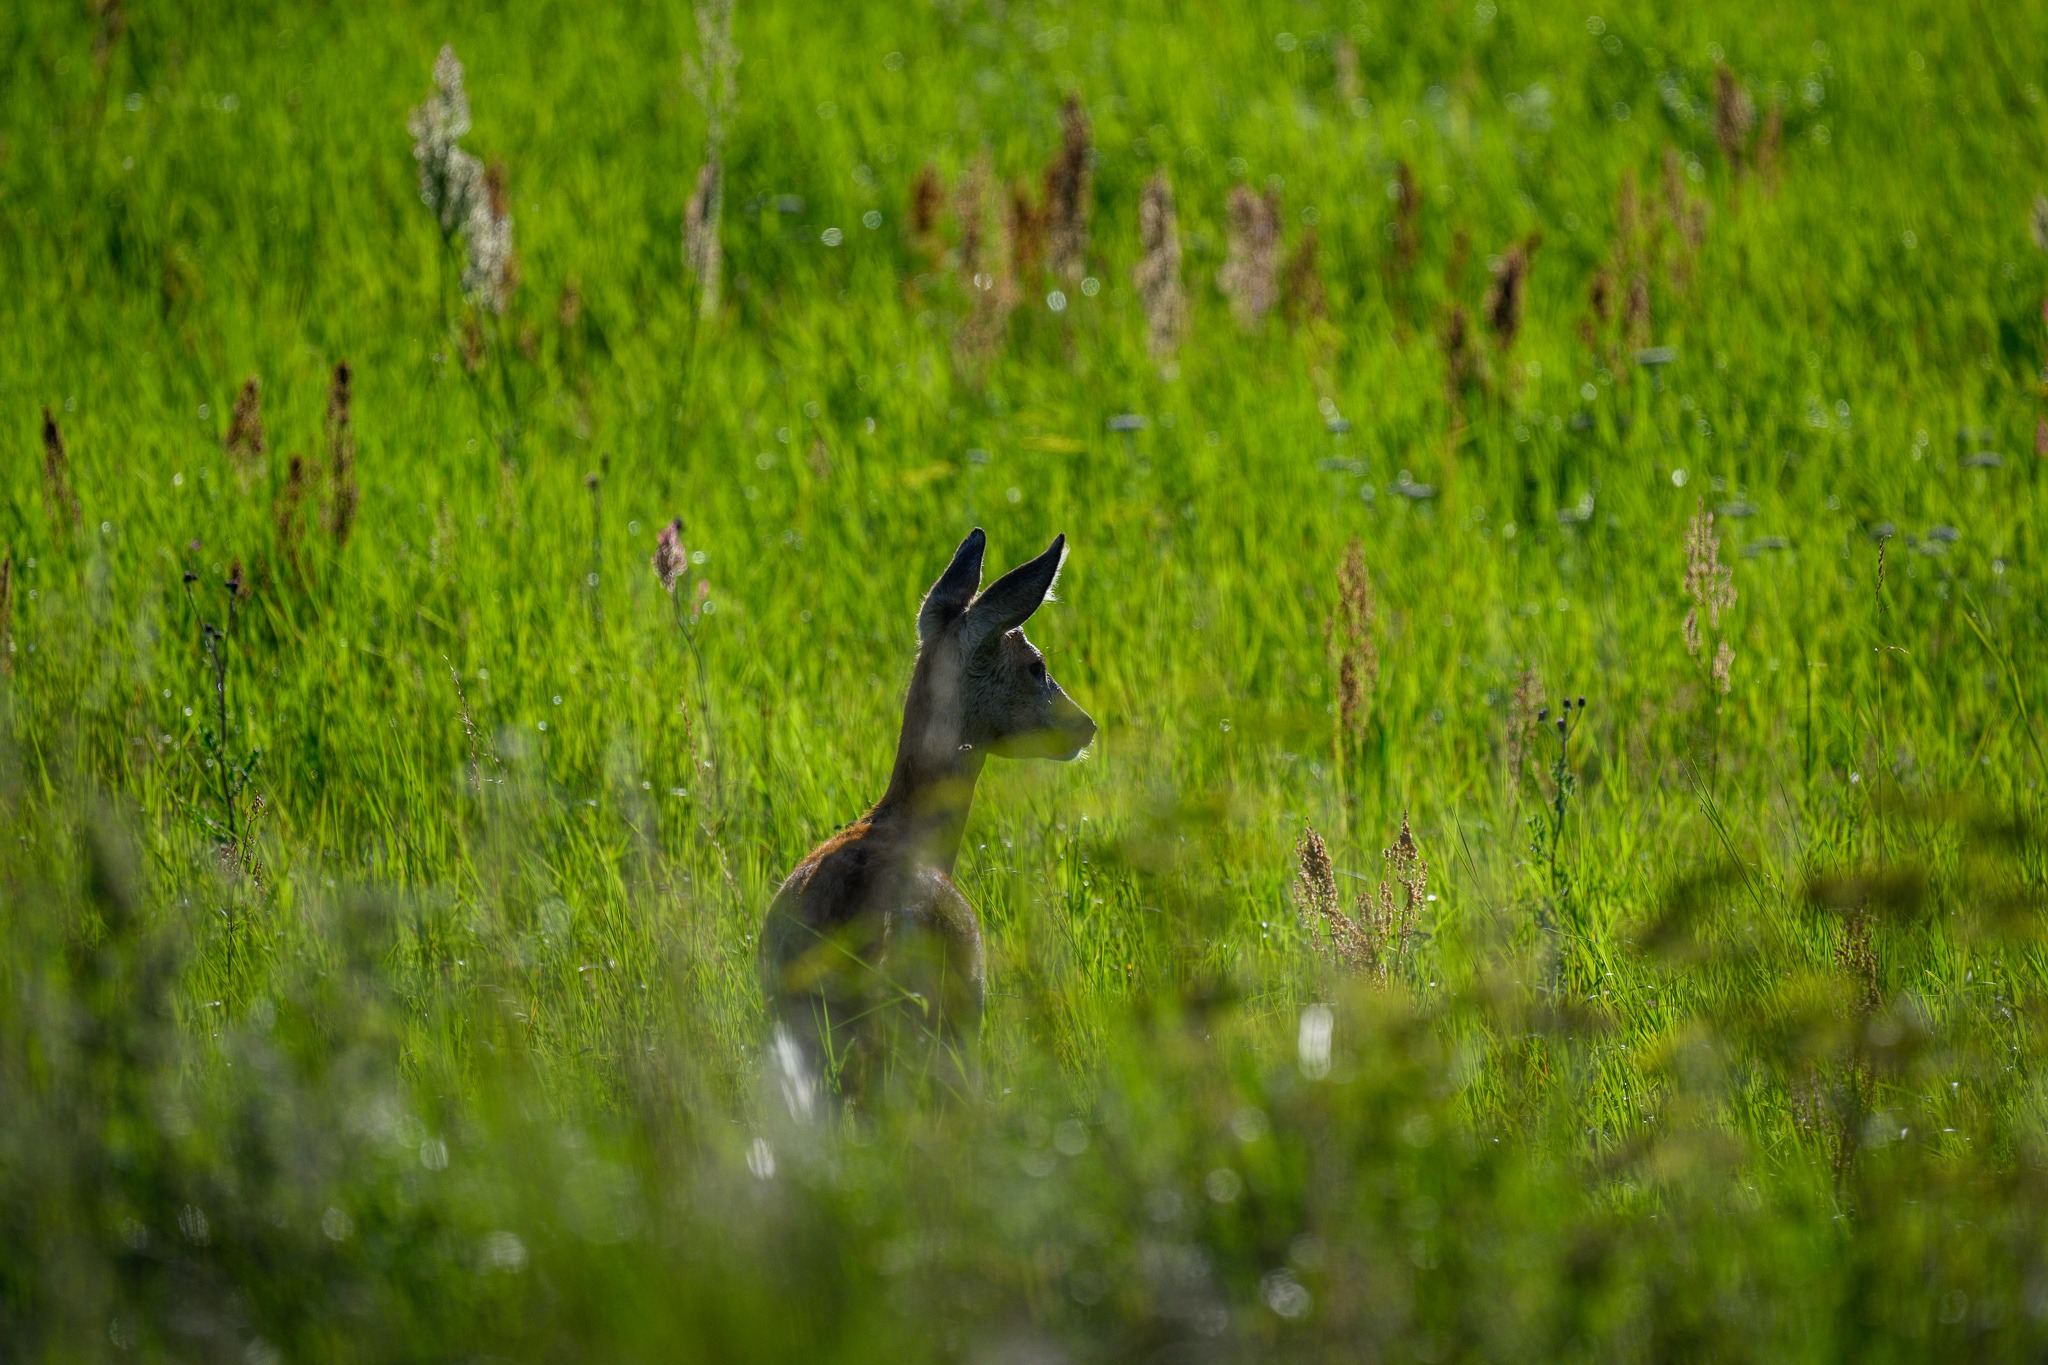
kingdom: Animalia
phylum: Chordata
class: Mammalia
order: Artiodactyla
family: Cervidae
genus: Capreolus
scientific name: Capreolus capreolus
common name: Rådyr
